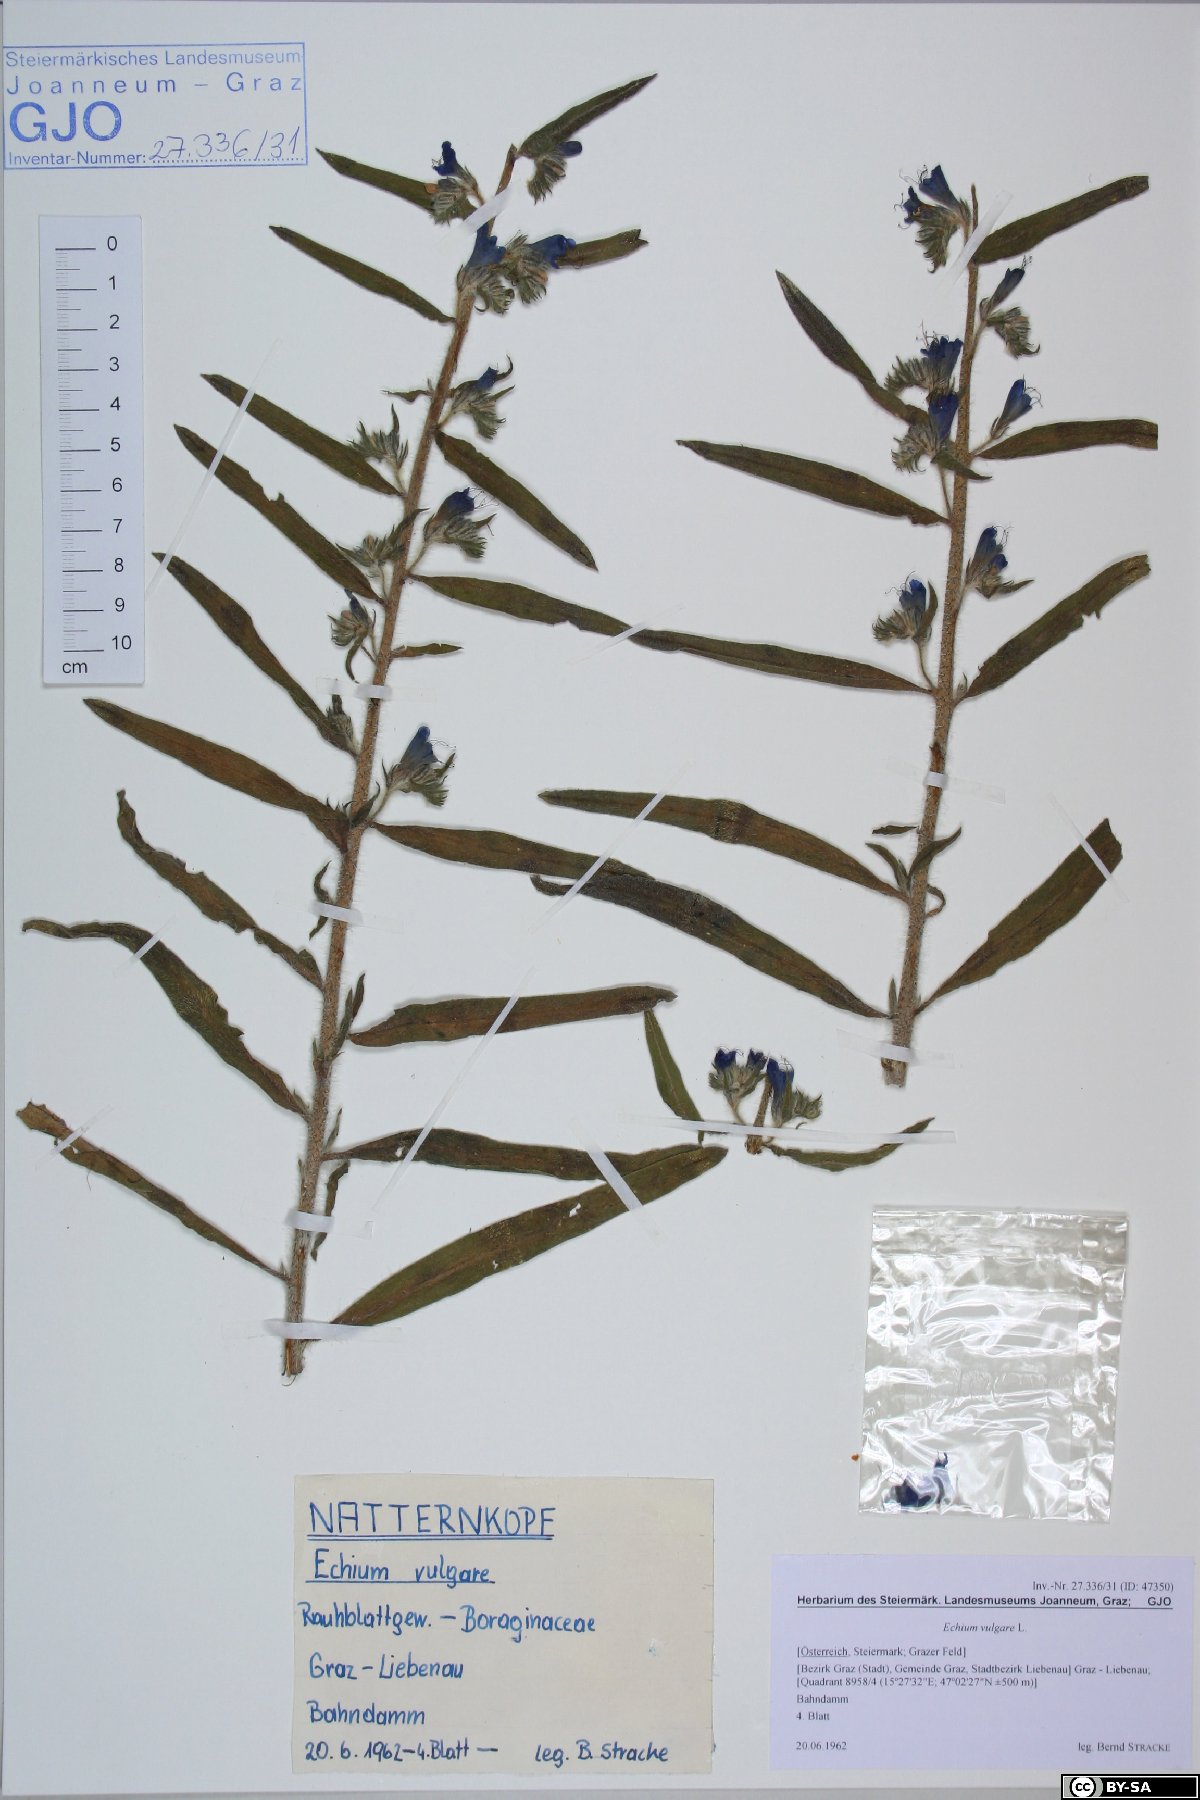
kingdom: Plantae
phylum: Tracheophyta
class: Magnoliopsida
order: Boraginales
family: Boraginaceae
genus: Echium
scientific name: Echium vulgare
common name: Common viper's bugloss
